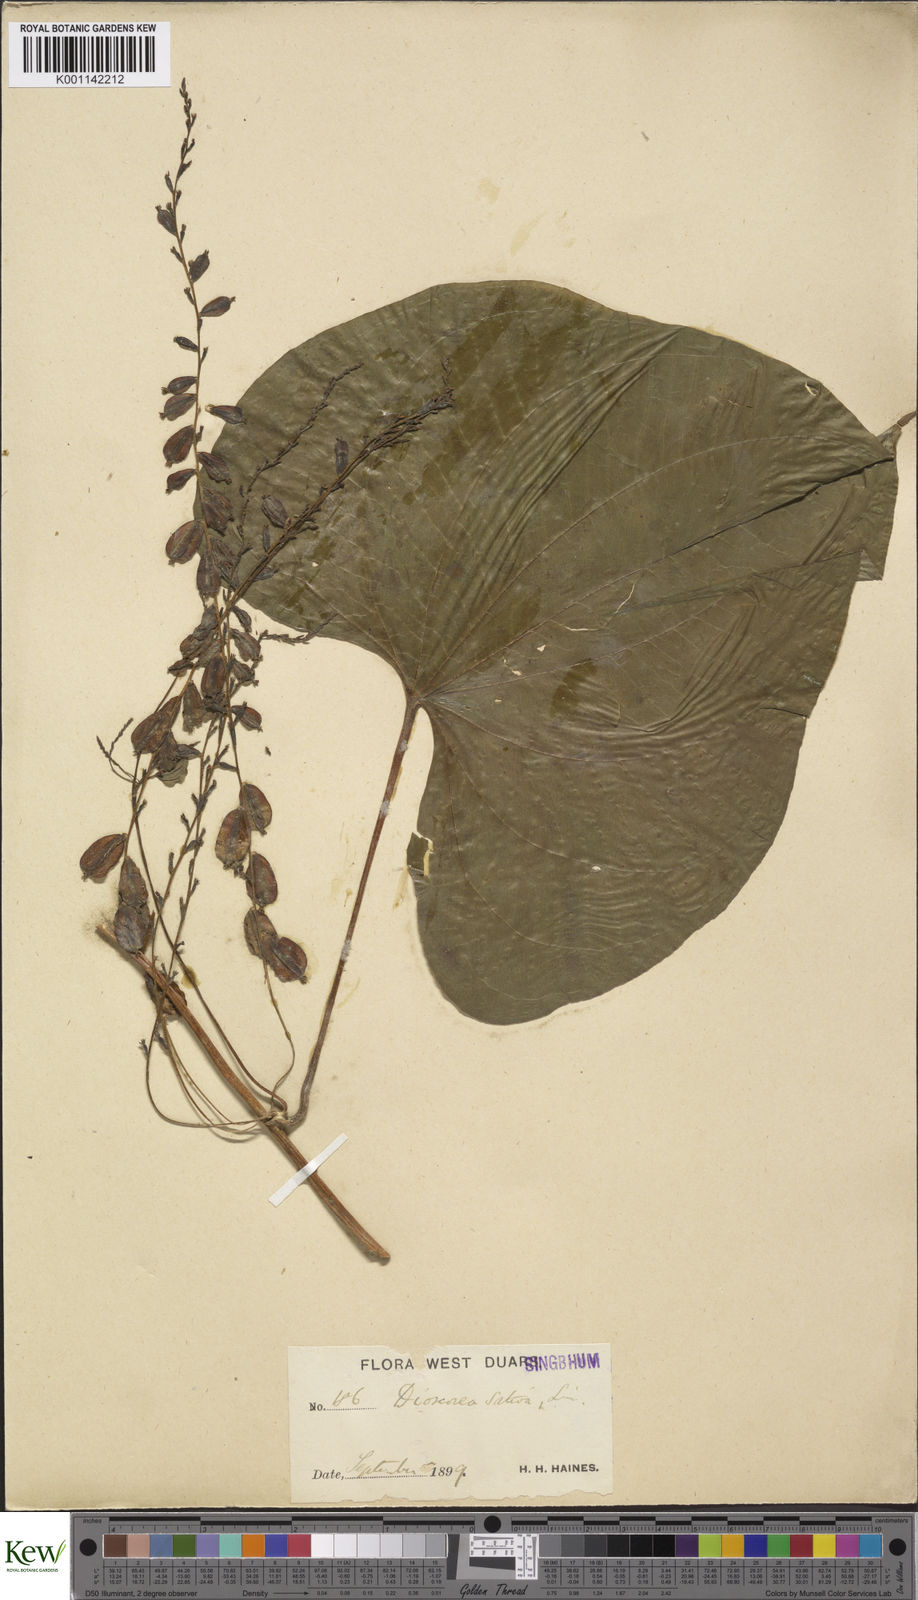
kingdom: Plantae
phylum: Tracheophyta
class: Liliopsida
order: Dioscoreales
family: Dioscoreaceae
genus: Dioscorea
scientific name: Dioscorea bulbifera
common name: Air yam
